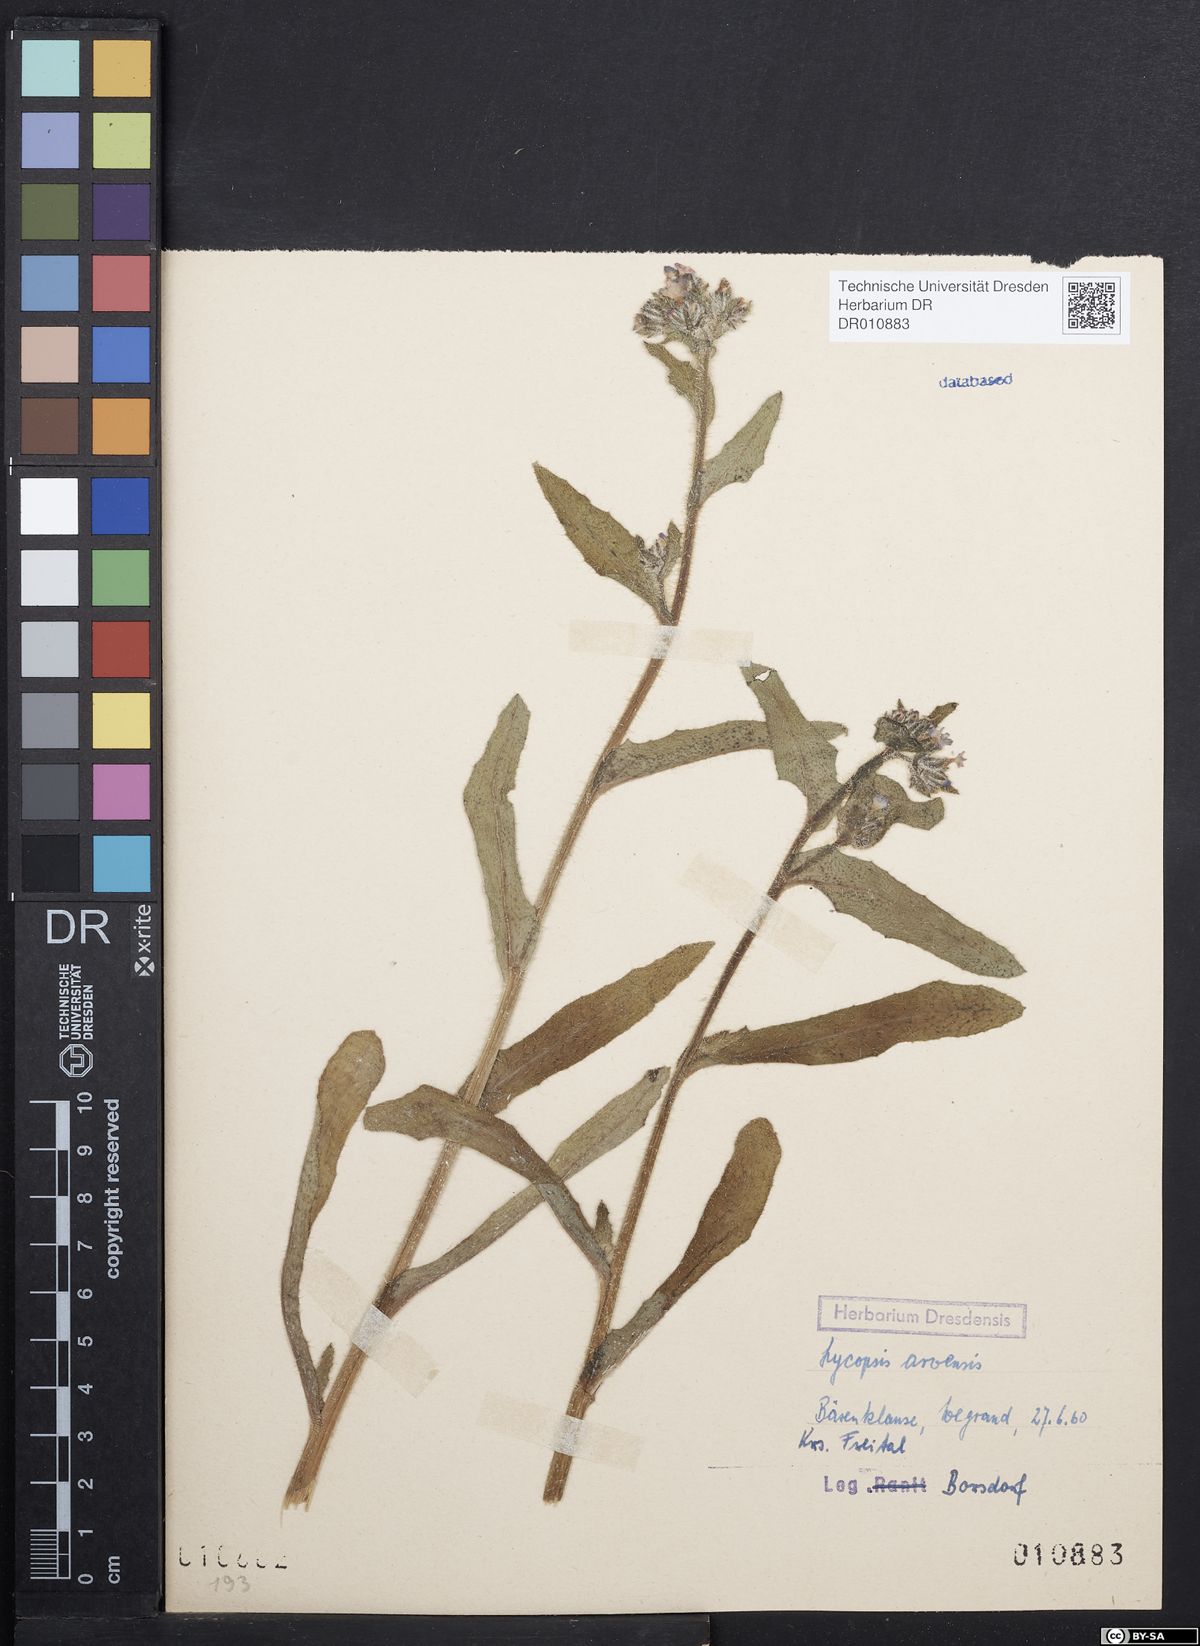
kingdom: Plantae
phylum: Tracheophyta
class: Magnoliopsida
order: Boraginales
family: Boraginaceae
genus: Lycopsis
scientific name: Lycopsis arvensis
